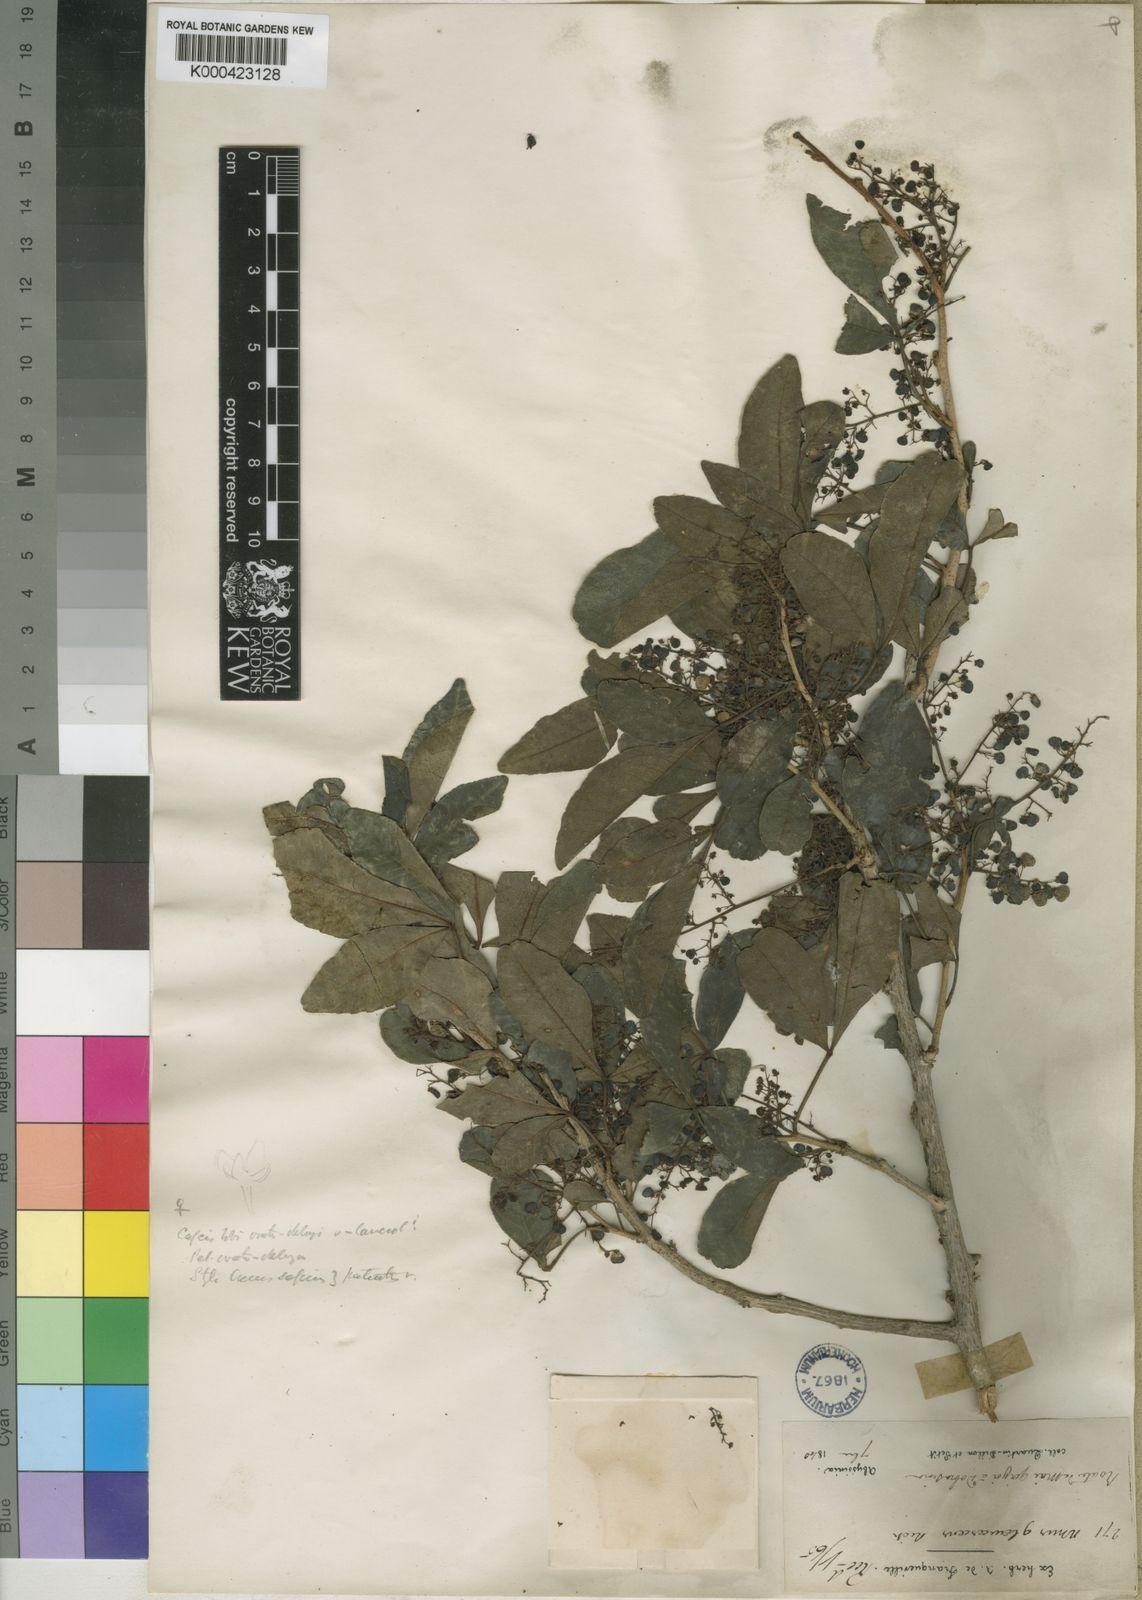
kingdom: Plantae
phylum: Tracheophyta
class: Magnoliopsida
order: Sapindales
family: Anacardiaceae
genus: Searsia
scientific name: Searsia natalensis
